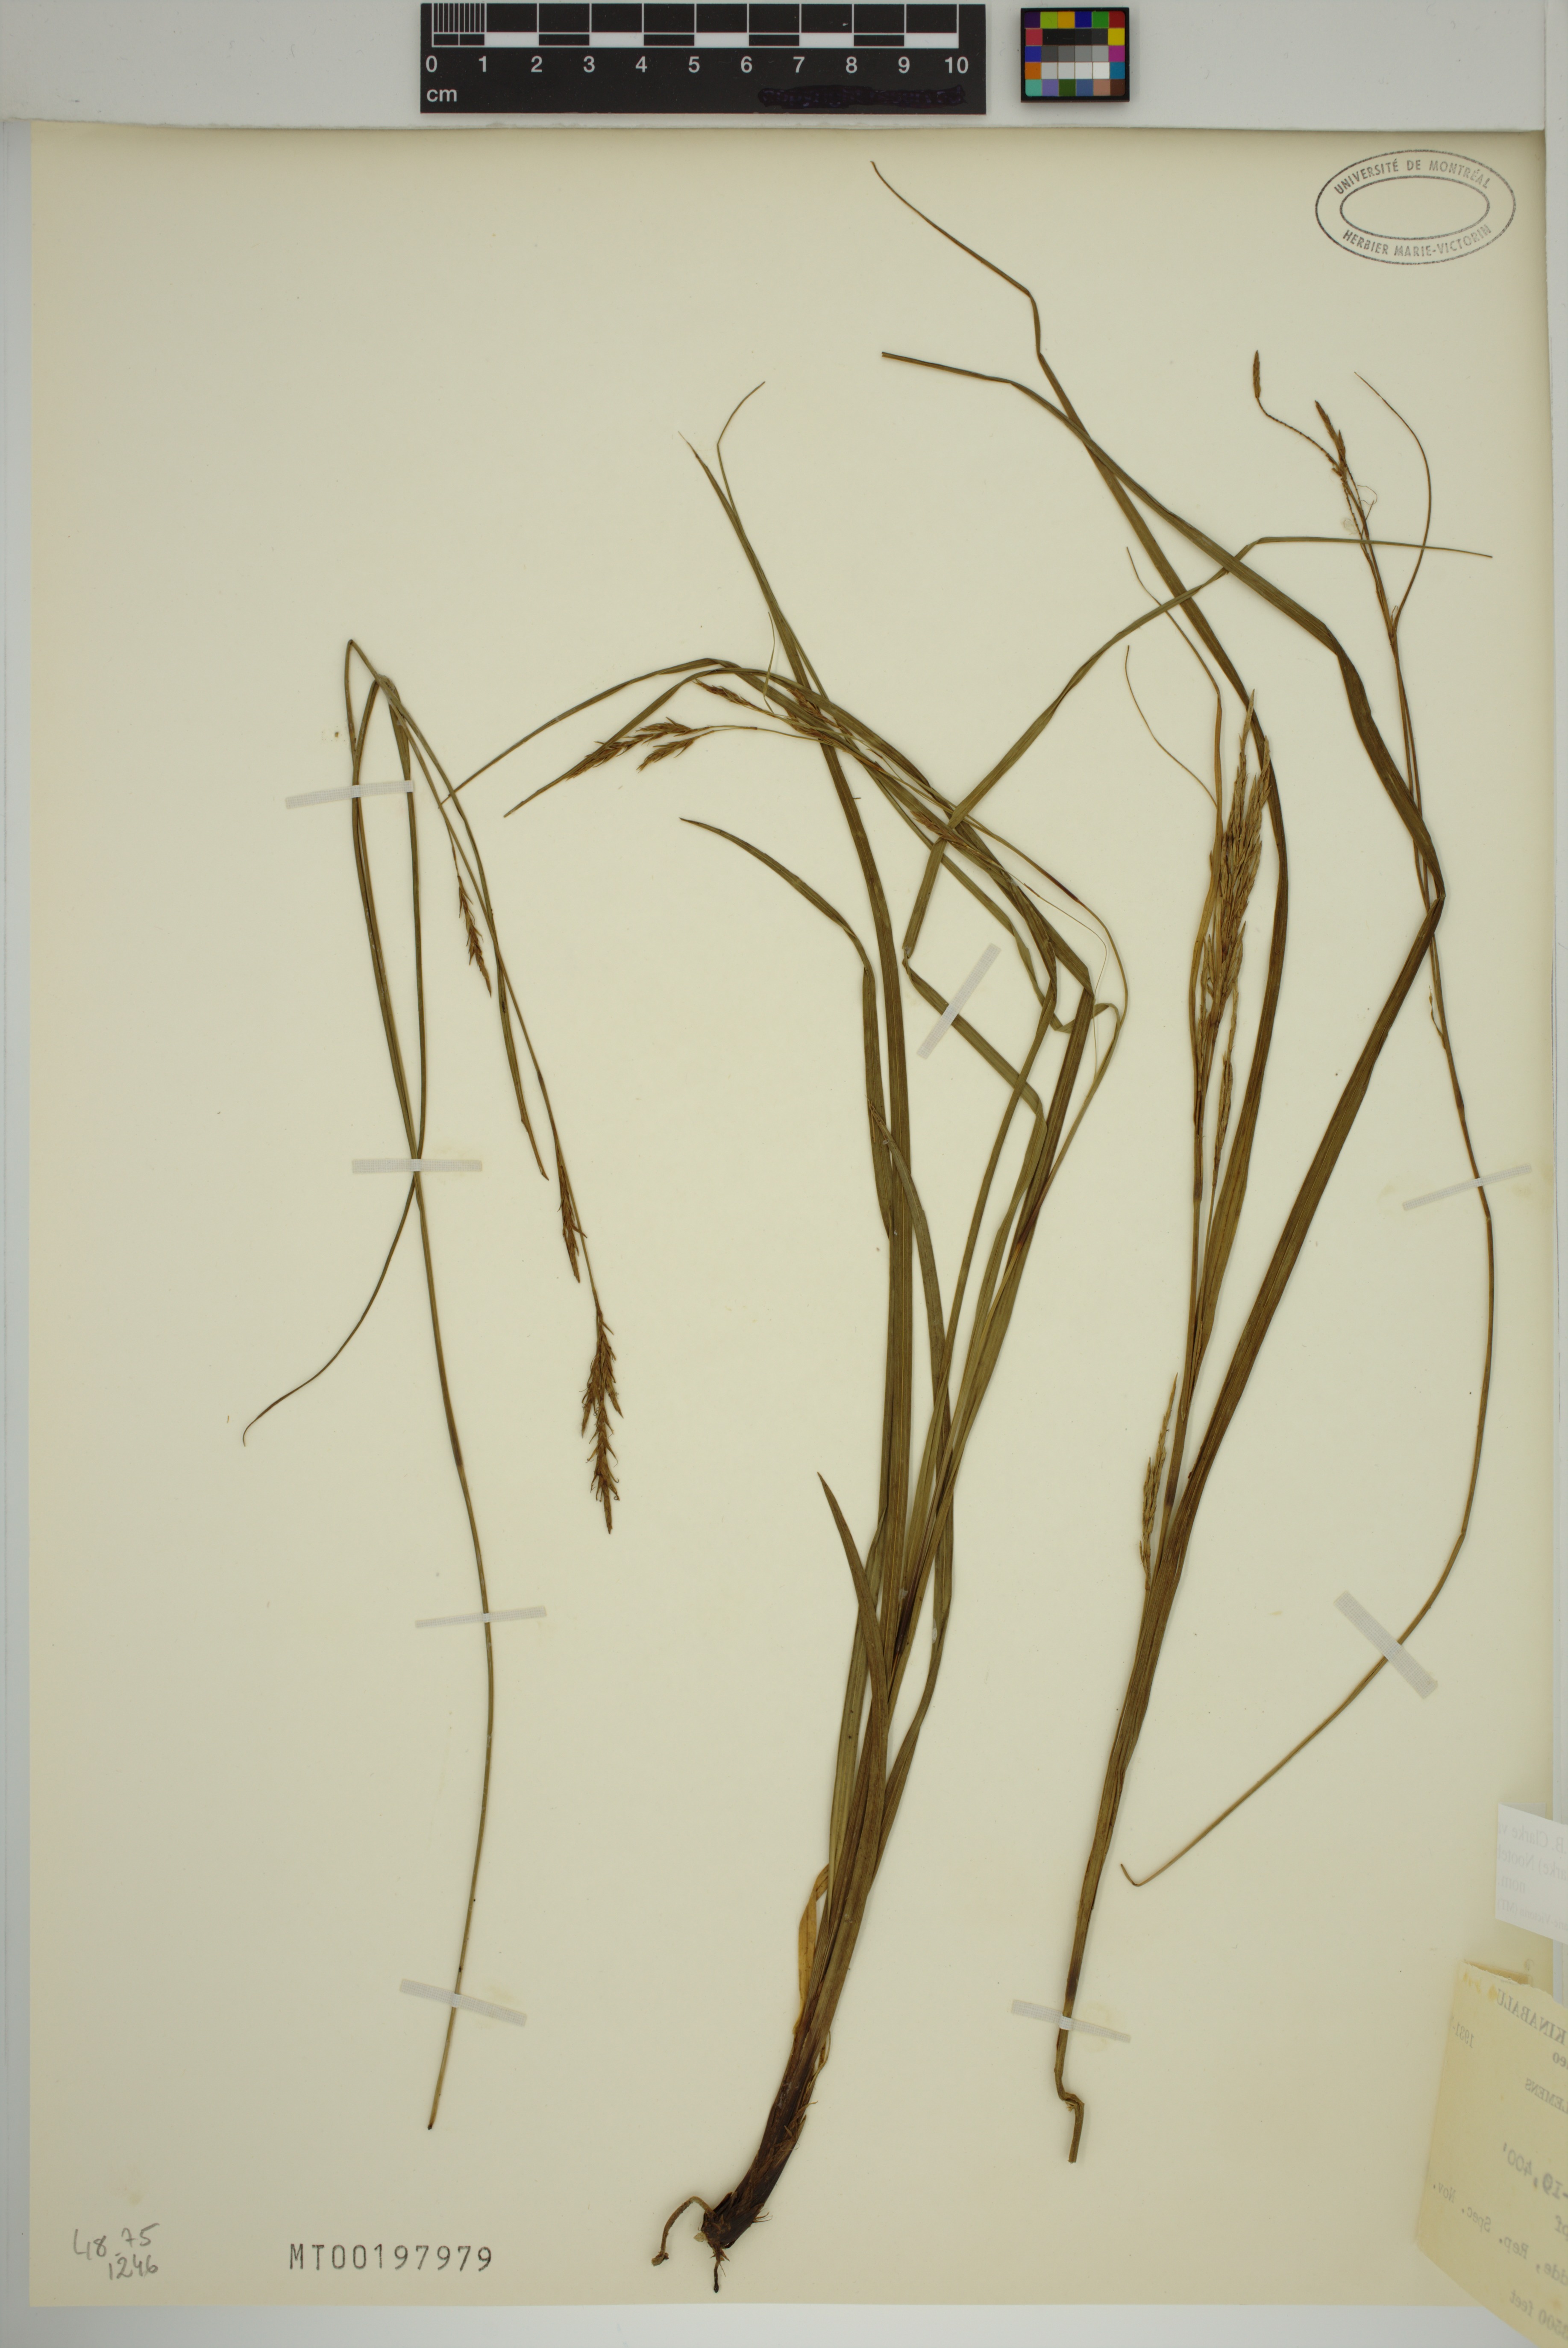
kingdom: Plantae
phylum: Tracheophyta
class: Liliopsida
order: Poales
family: Cyperaceae
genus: Carex
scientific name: Carex perakensis
